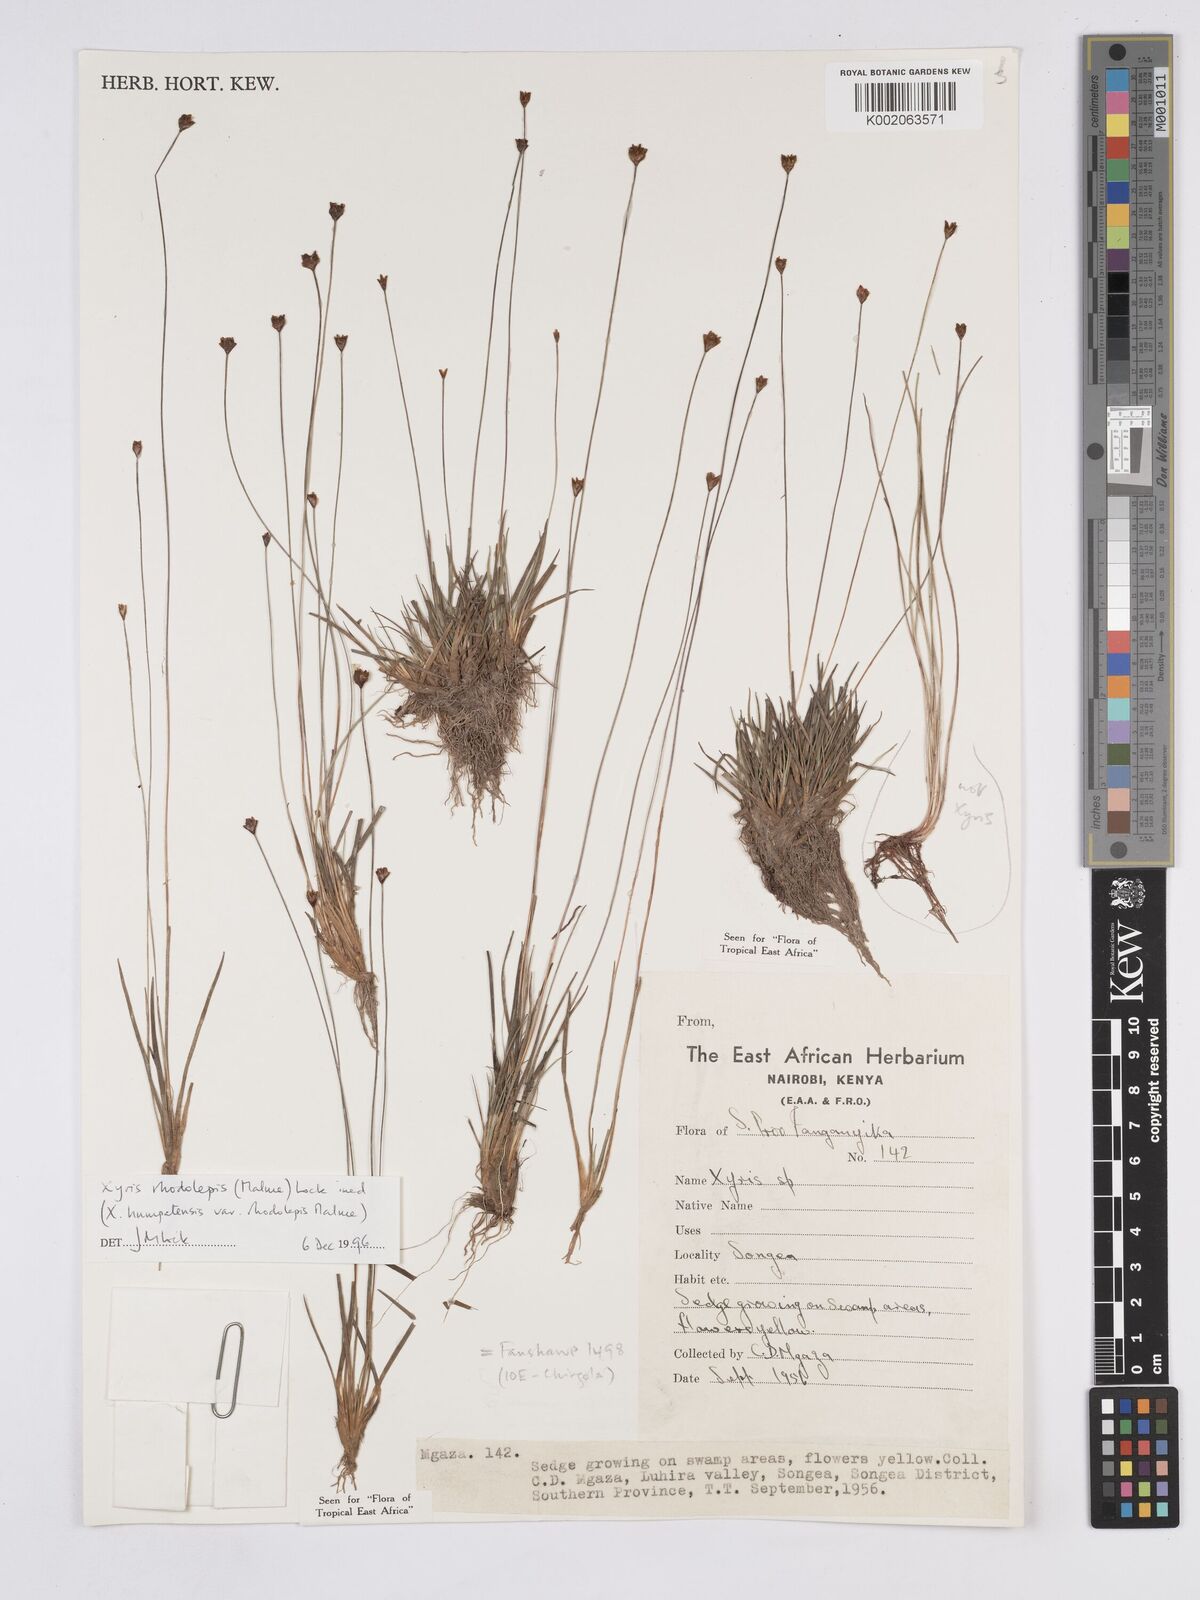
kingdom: Plantae
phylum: Tracheophyta
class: Liliopsida
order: Poales
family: Xyridaceae
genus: Xyris
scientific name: Xyris rhodolepis
